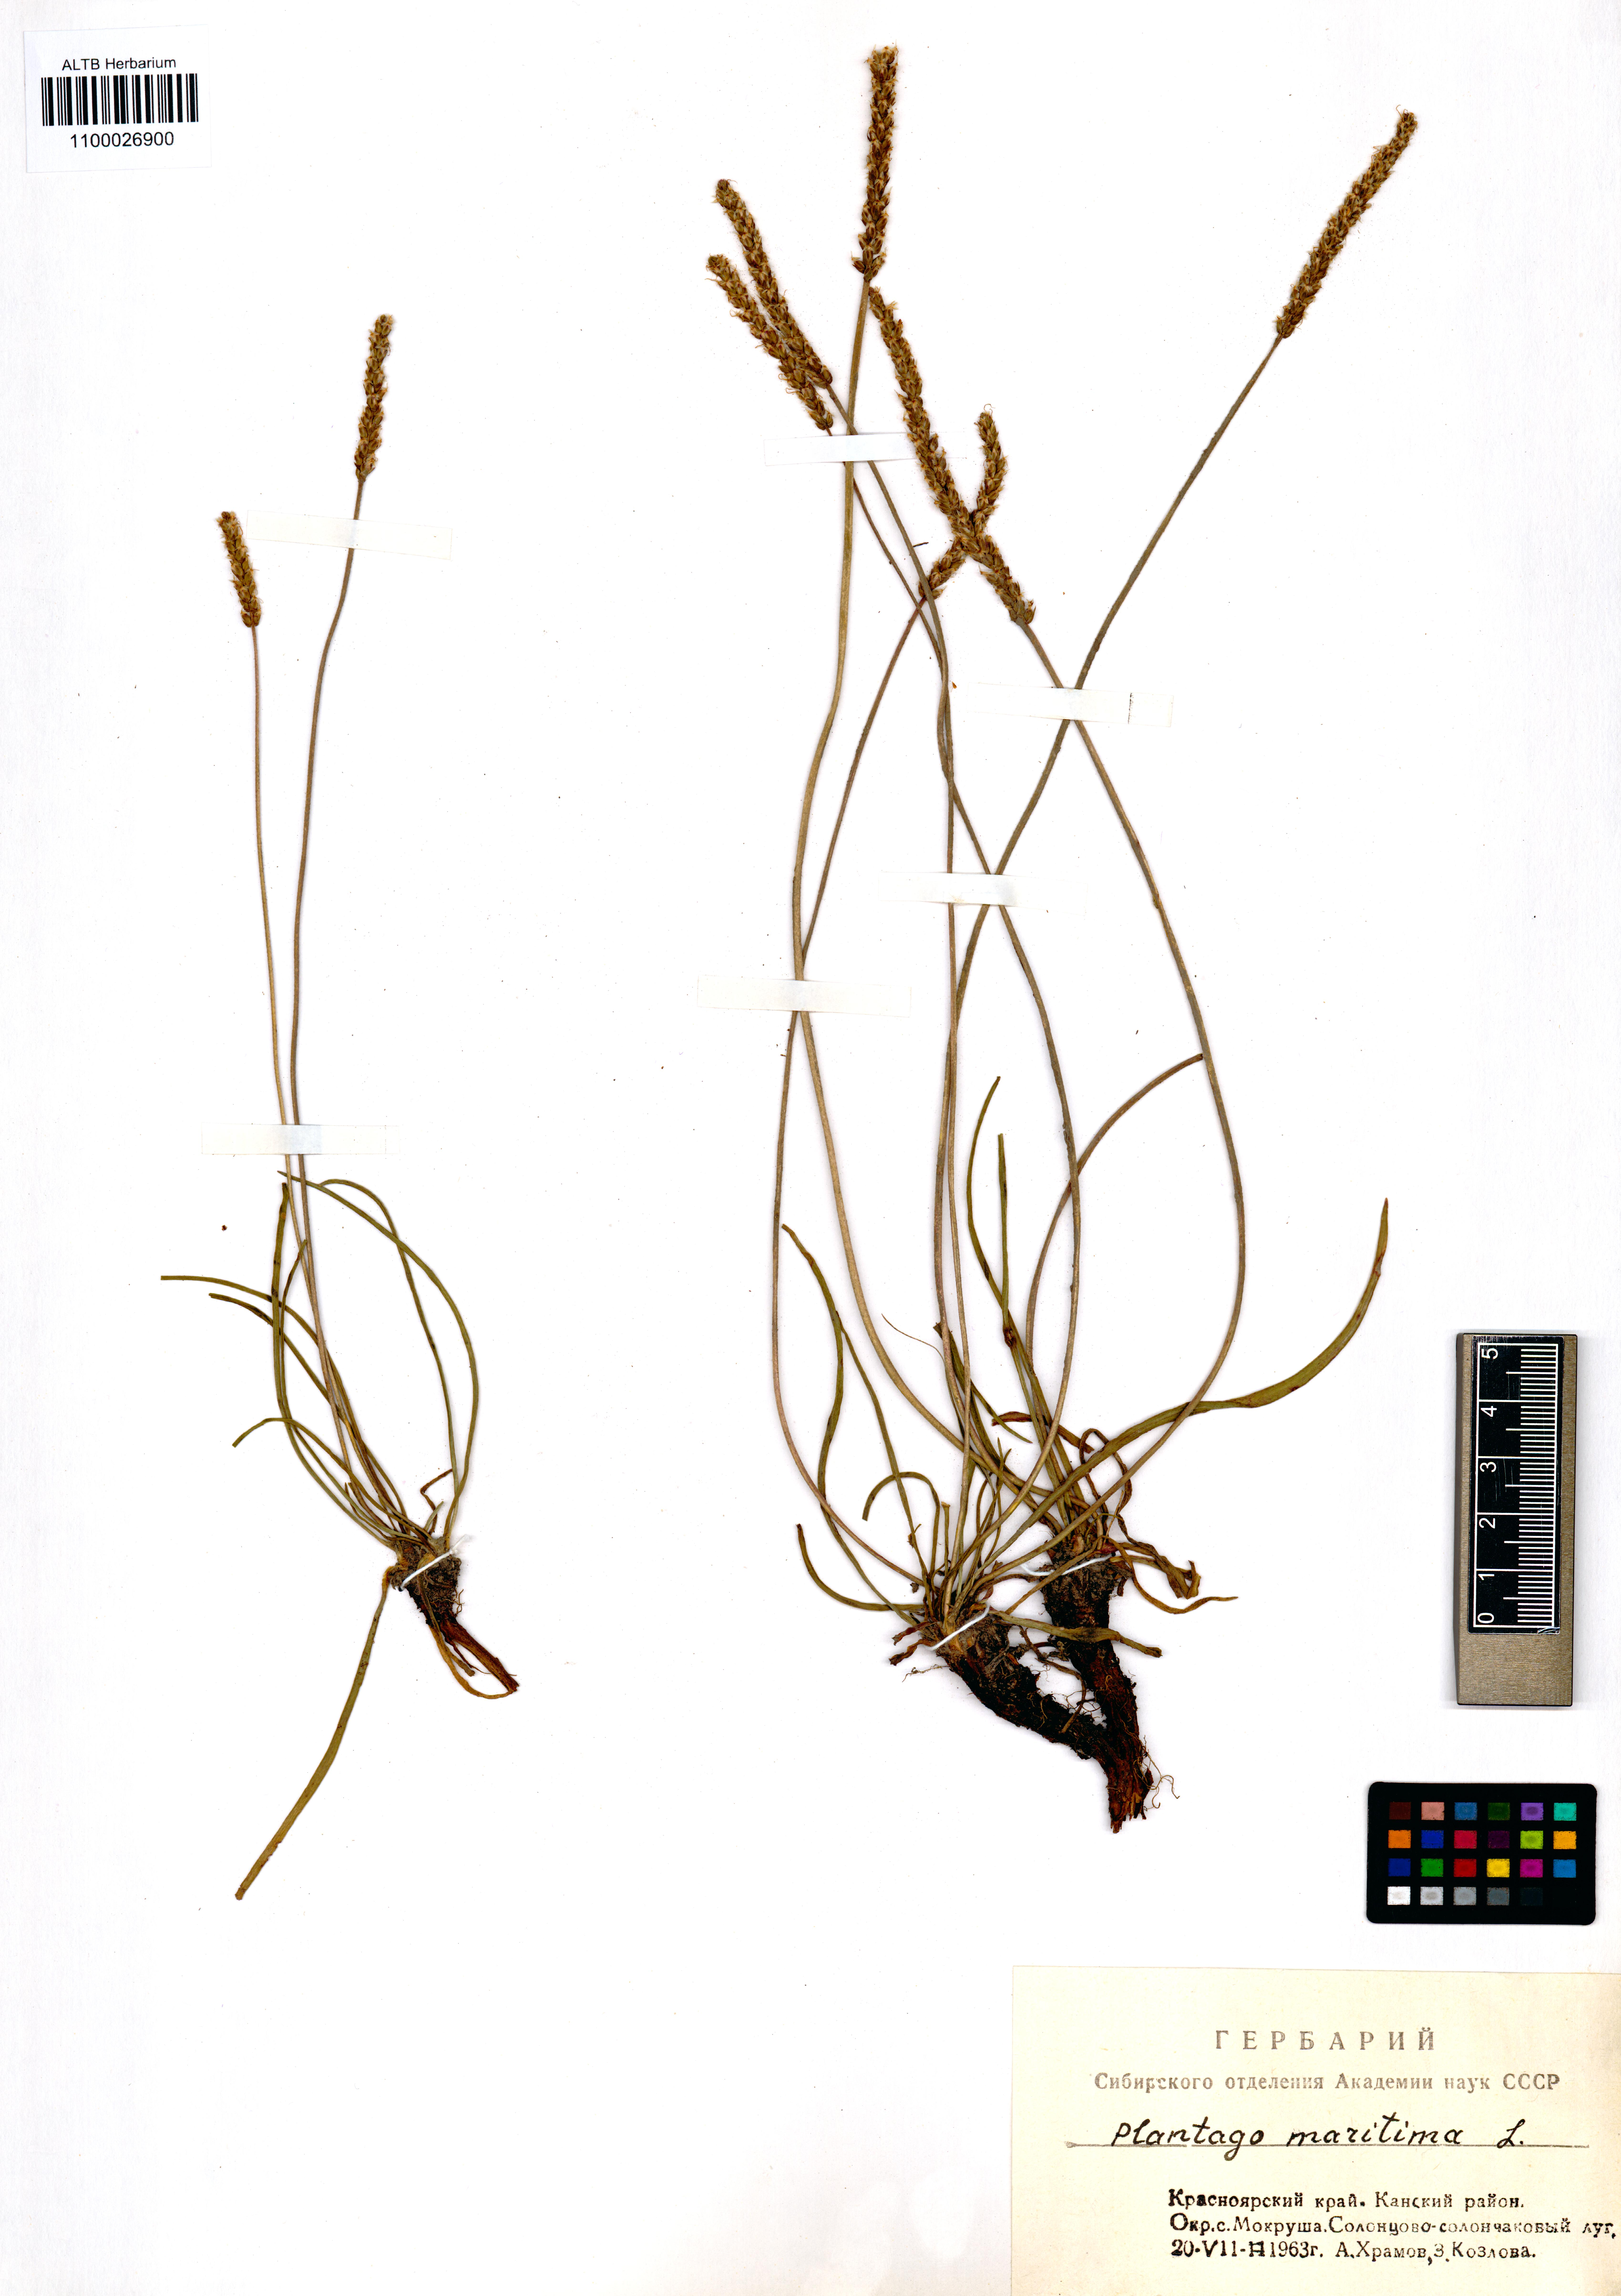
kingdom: Plantae
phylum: Tracheophyta
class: Magnoliopsida
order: Lamiales
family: Plantaginaceae
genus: Plantago
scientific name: Plantago maritima
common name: Sea plantain
